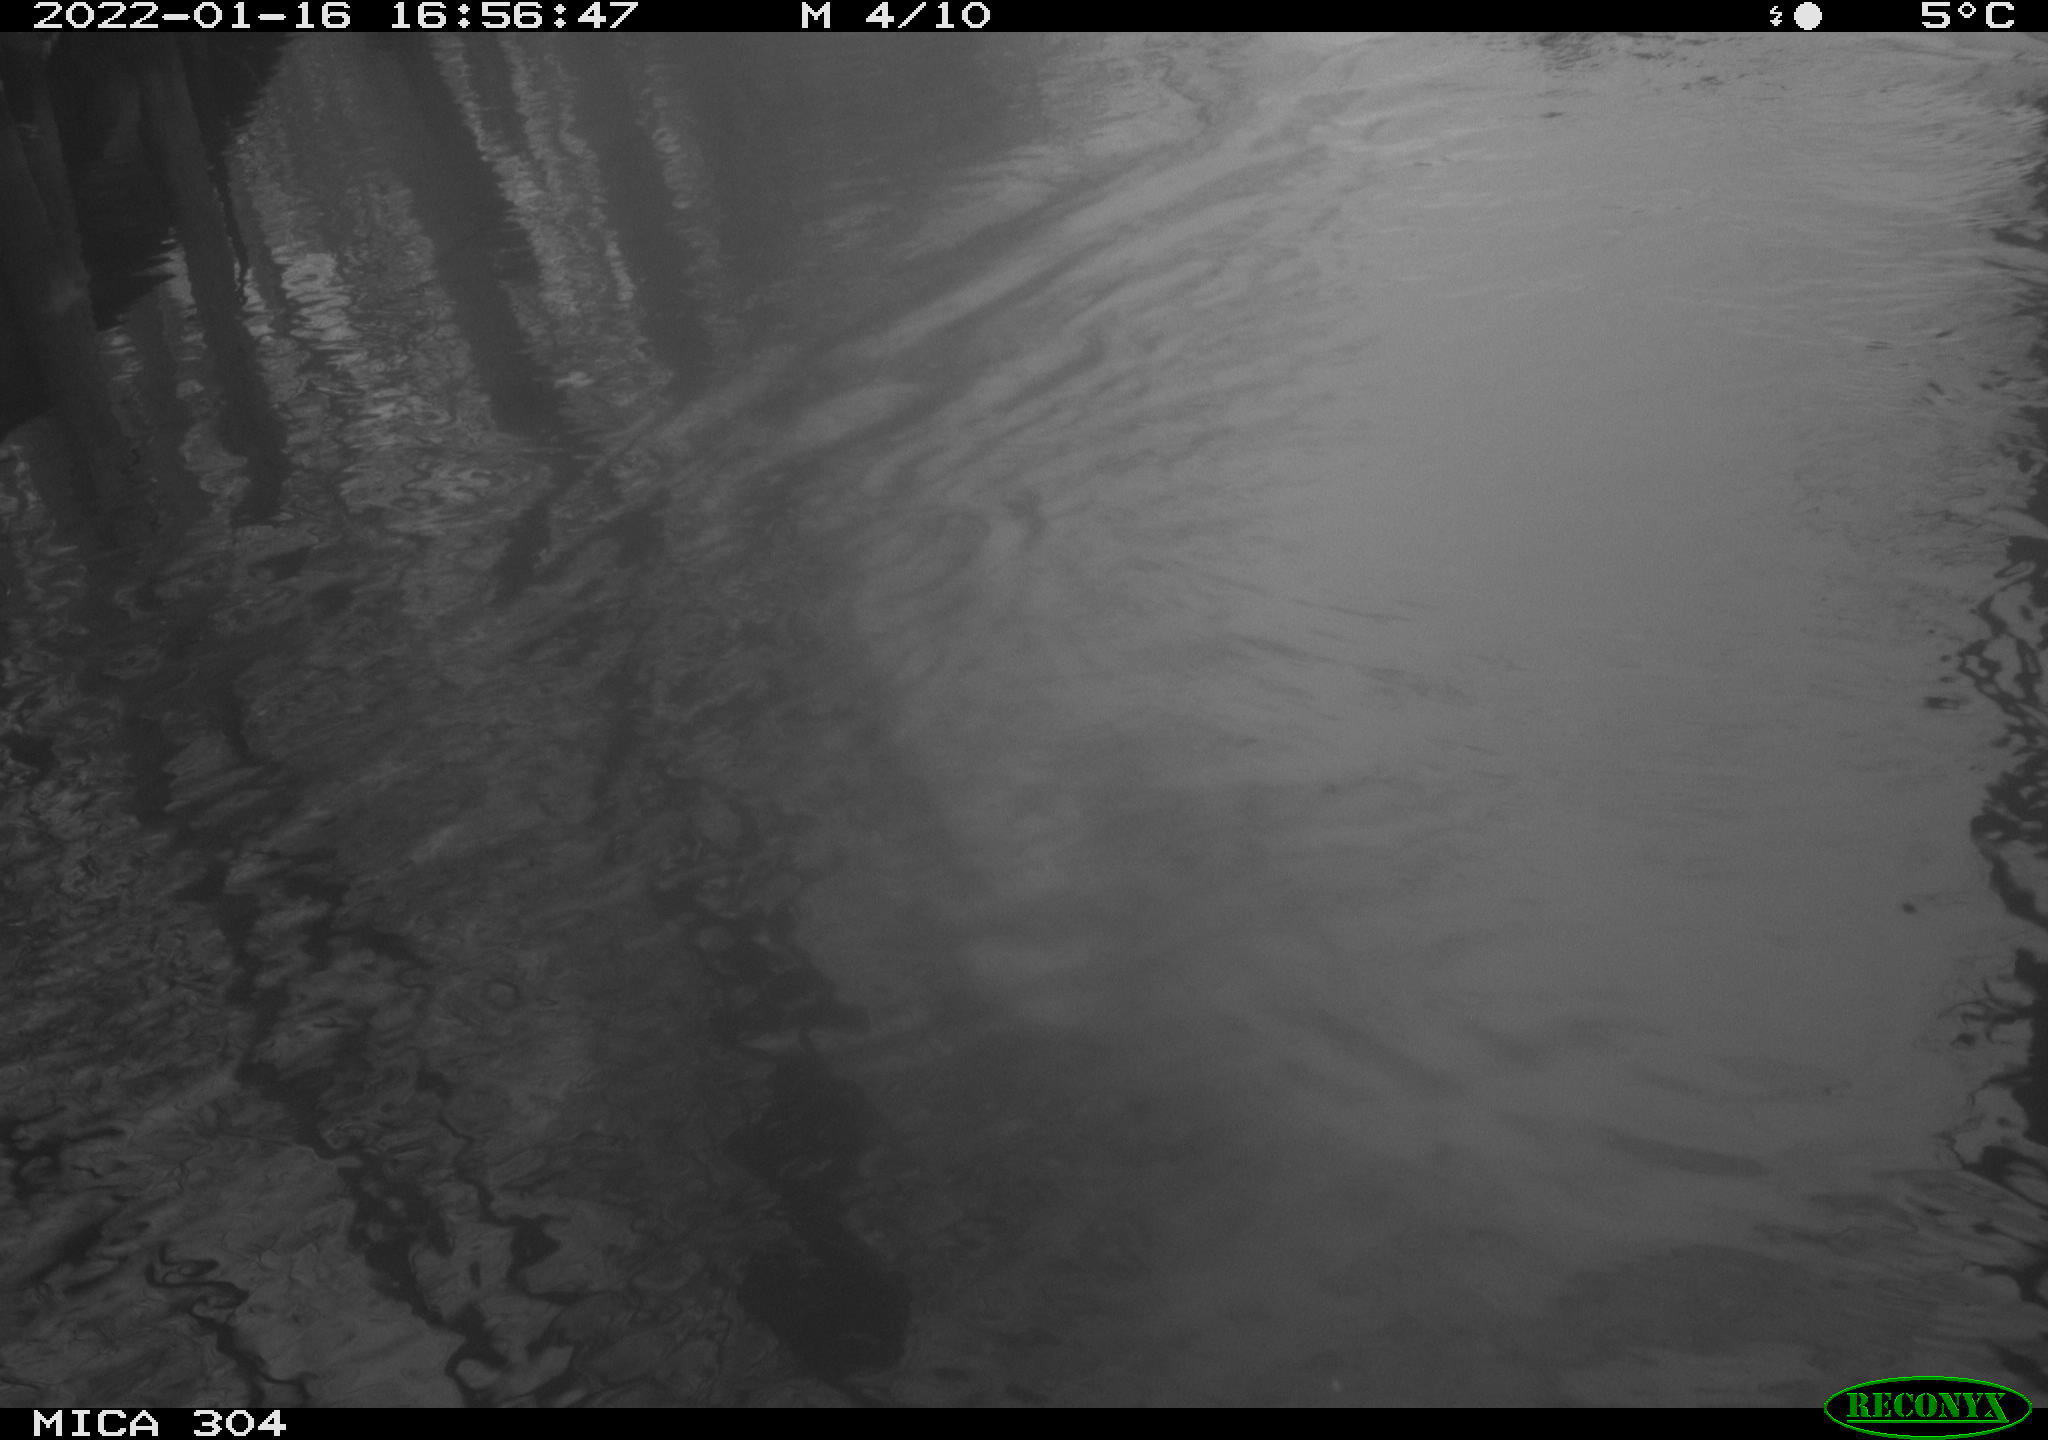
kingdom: Animalia
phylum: Chordata
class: Aves
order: Anseriformes
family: Anatidae
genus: Anas
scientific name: Anas
